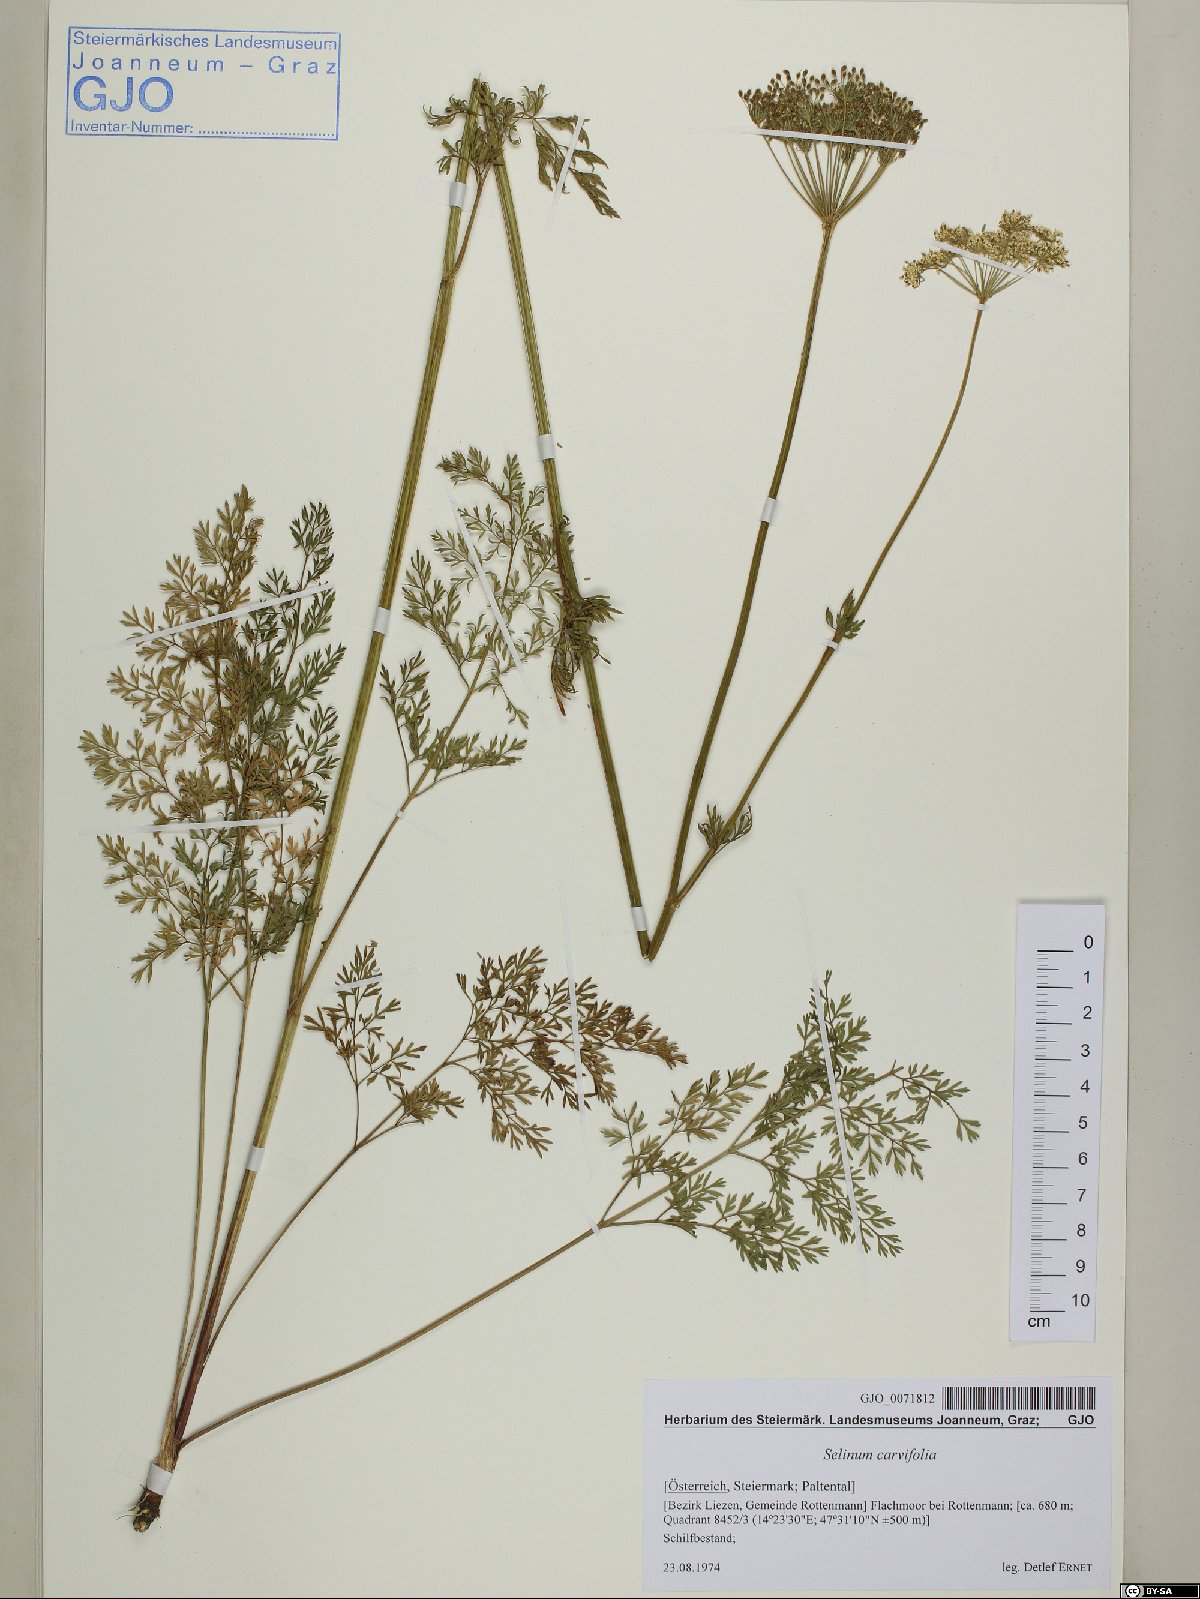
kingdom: Plantae
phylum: Tracheophyta
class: Magnoliopsida
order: Apiales
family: Apiaceae
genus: Selinum
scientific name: Selinum carvifolia
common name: Cambridge milk-parsley
